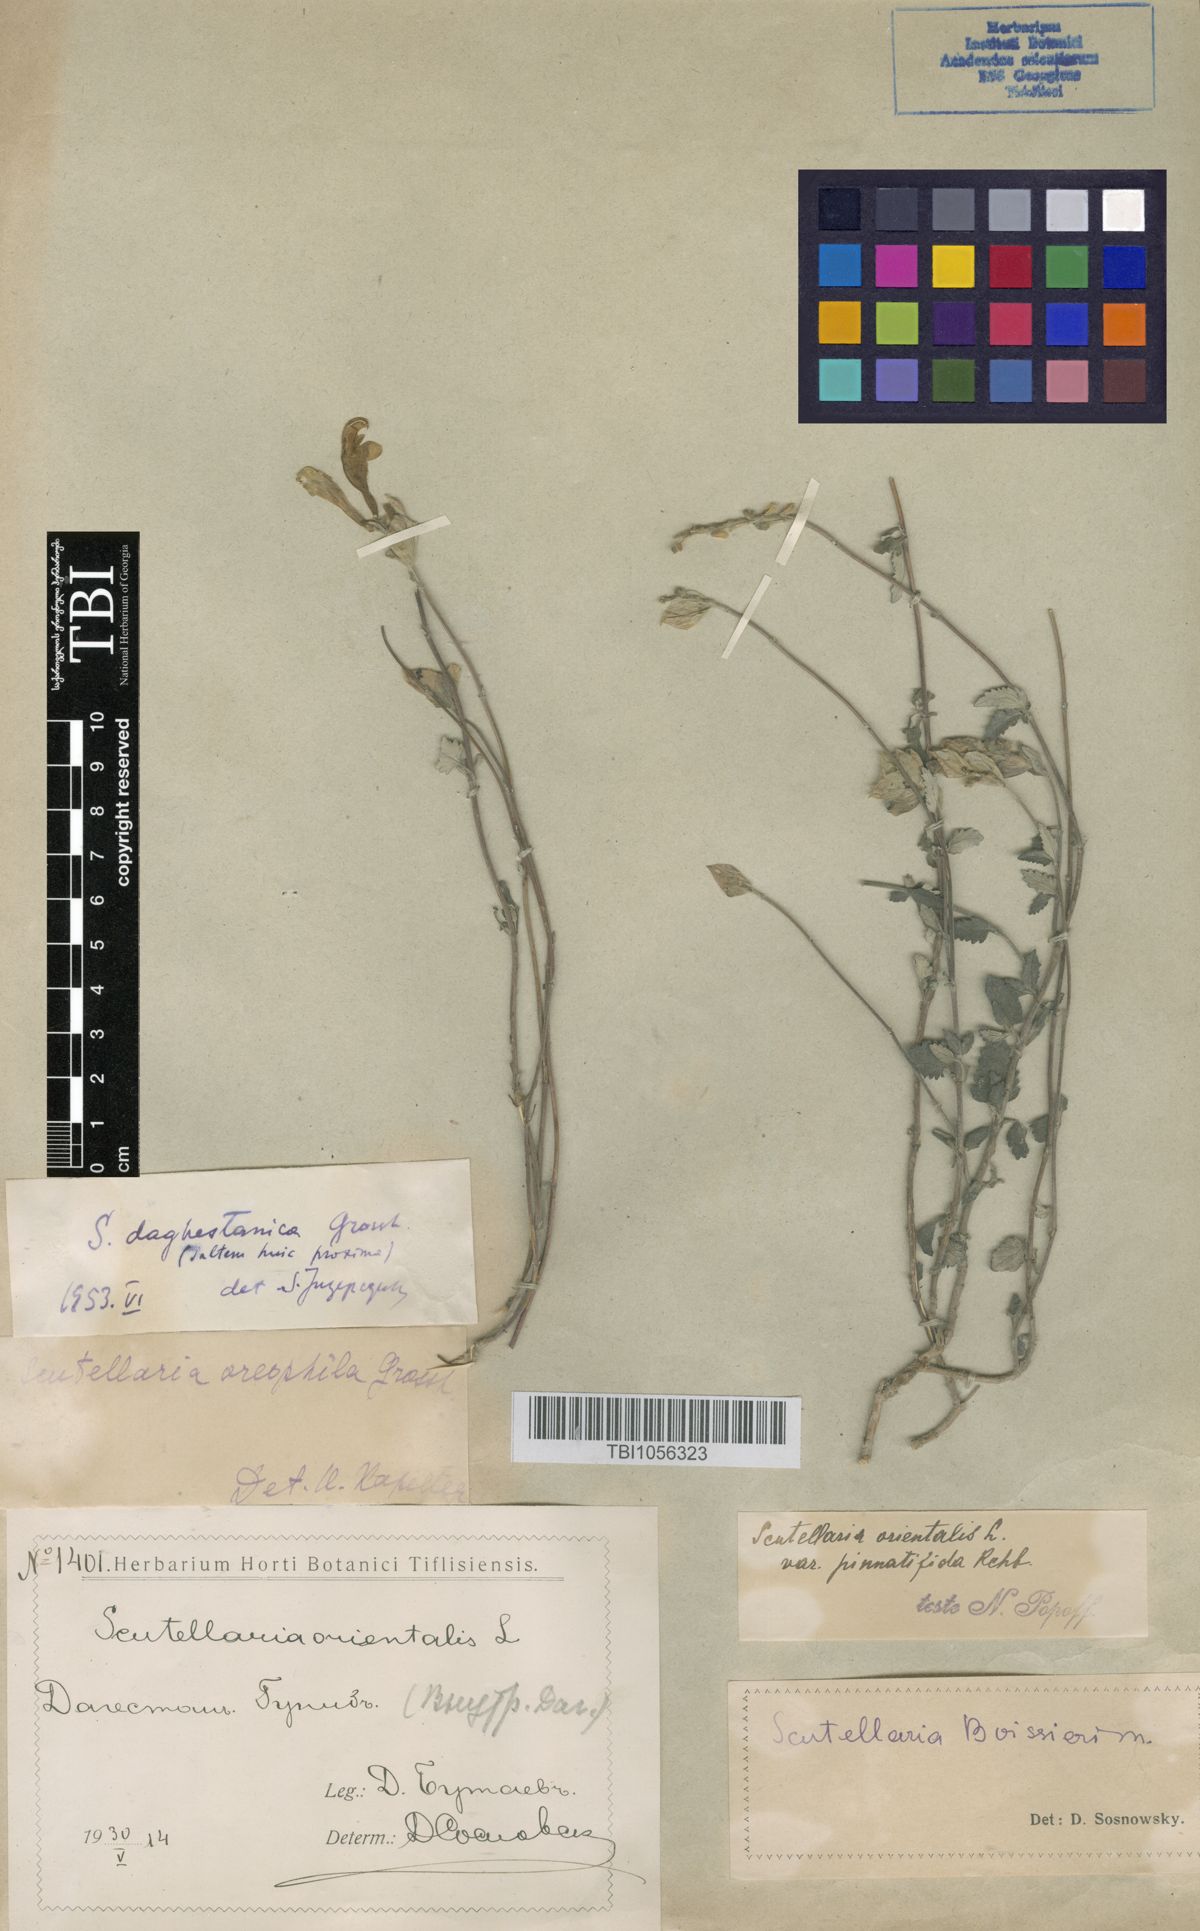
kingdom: Plantae
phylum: Tracheophyta
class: Magnoliopsida
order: Lamiales
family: Lamiaceae
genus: Scutellaria
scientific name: Scutellaria daghestanica
